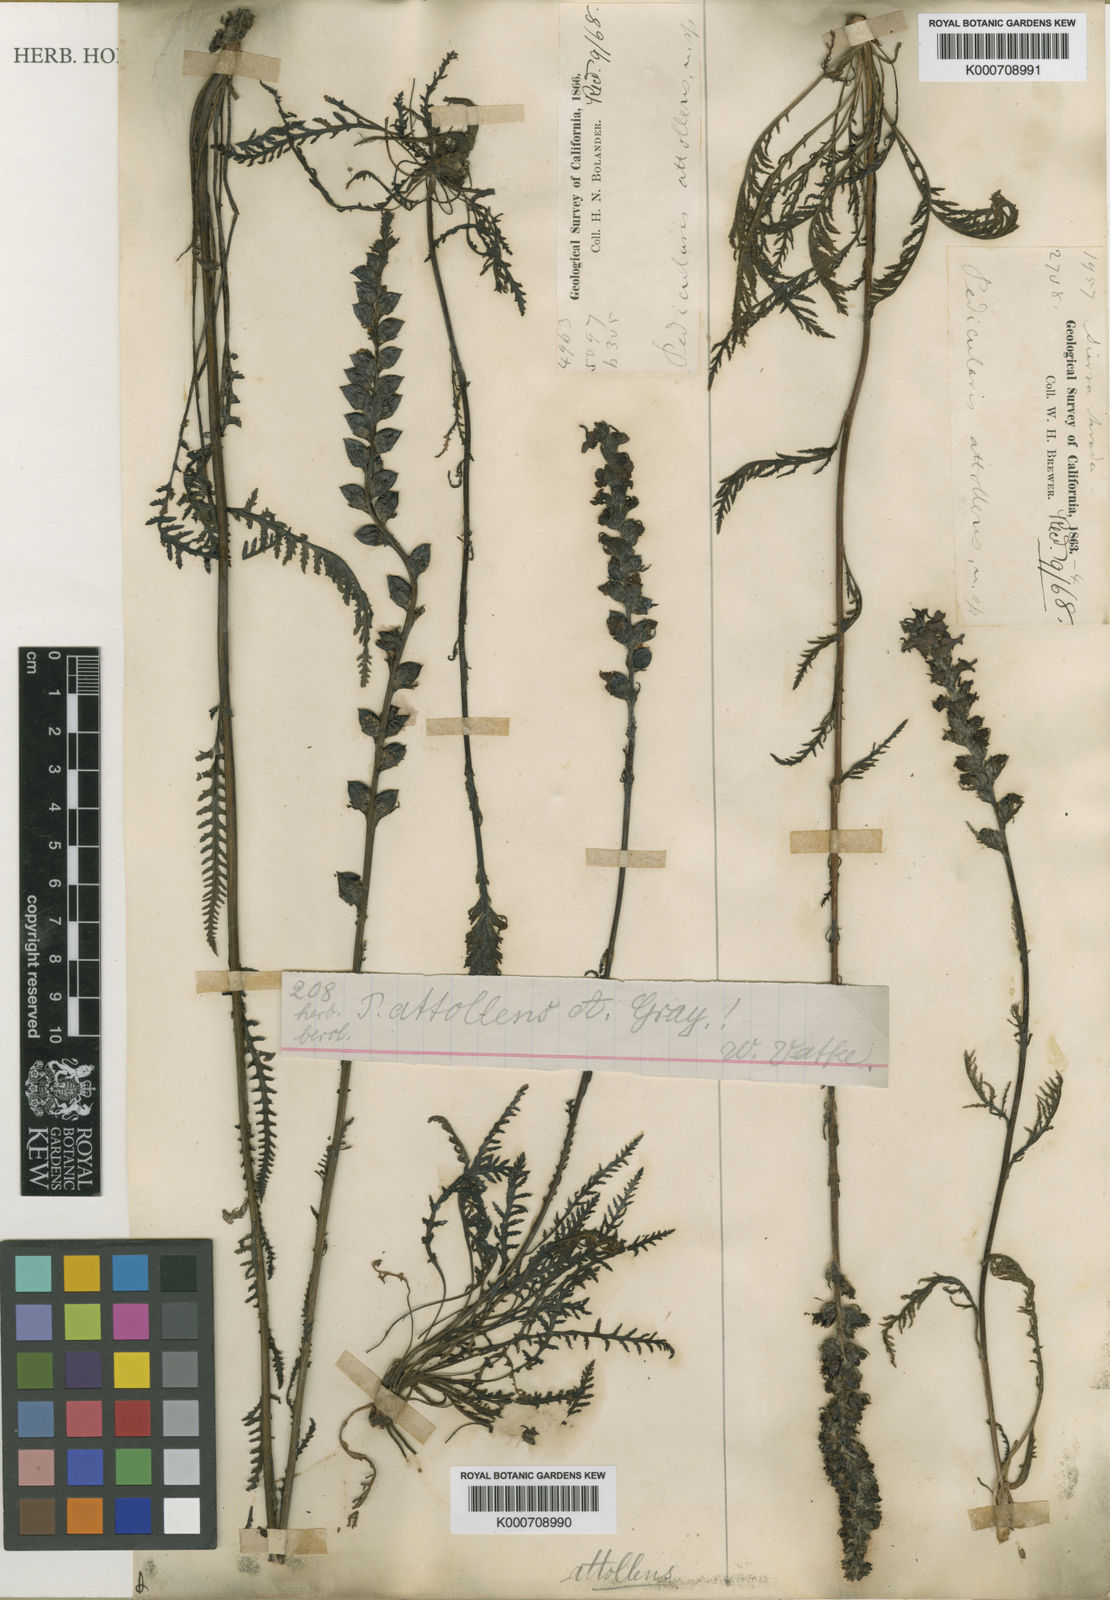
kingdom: Plantae
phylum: Tracheophyta
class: Magnoliopsida
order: Lamiales
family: Orobanchaceae
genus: Pedicularis
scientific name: Pedicularis attollens
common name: Slender pedicularis
